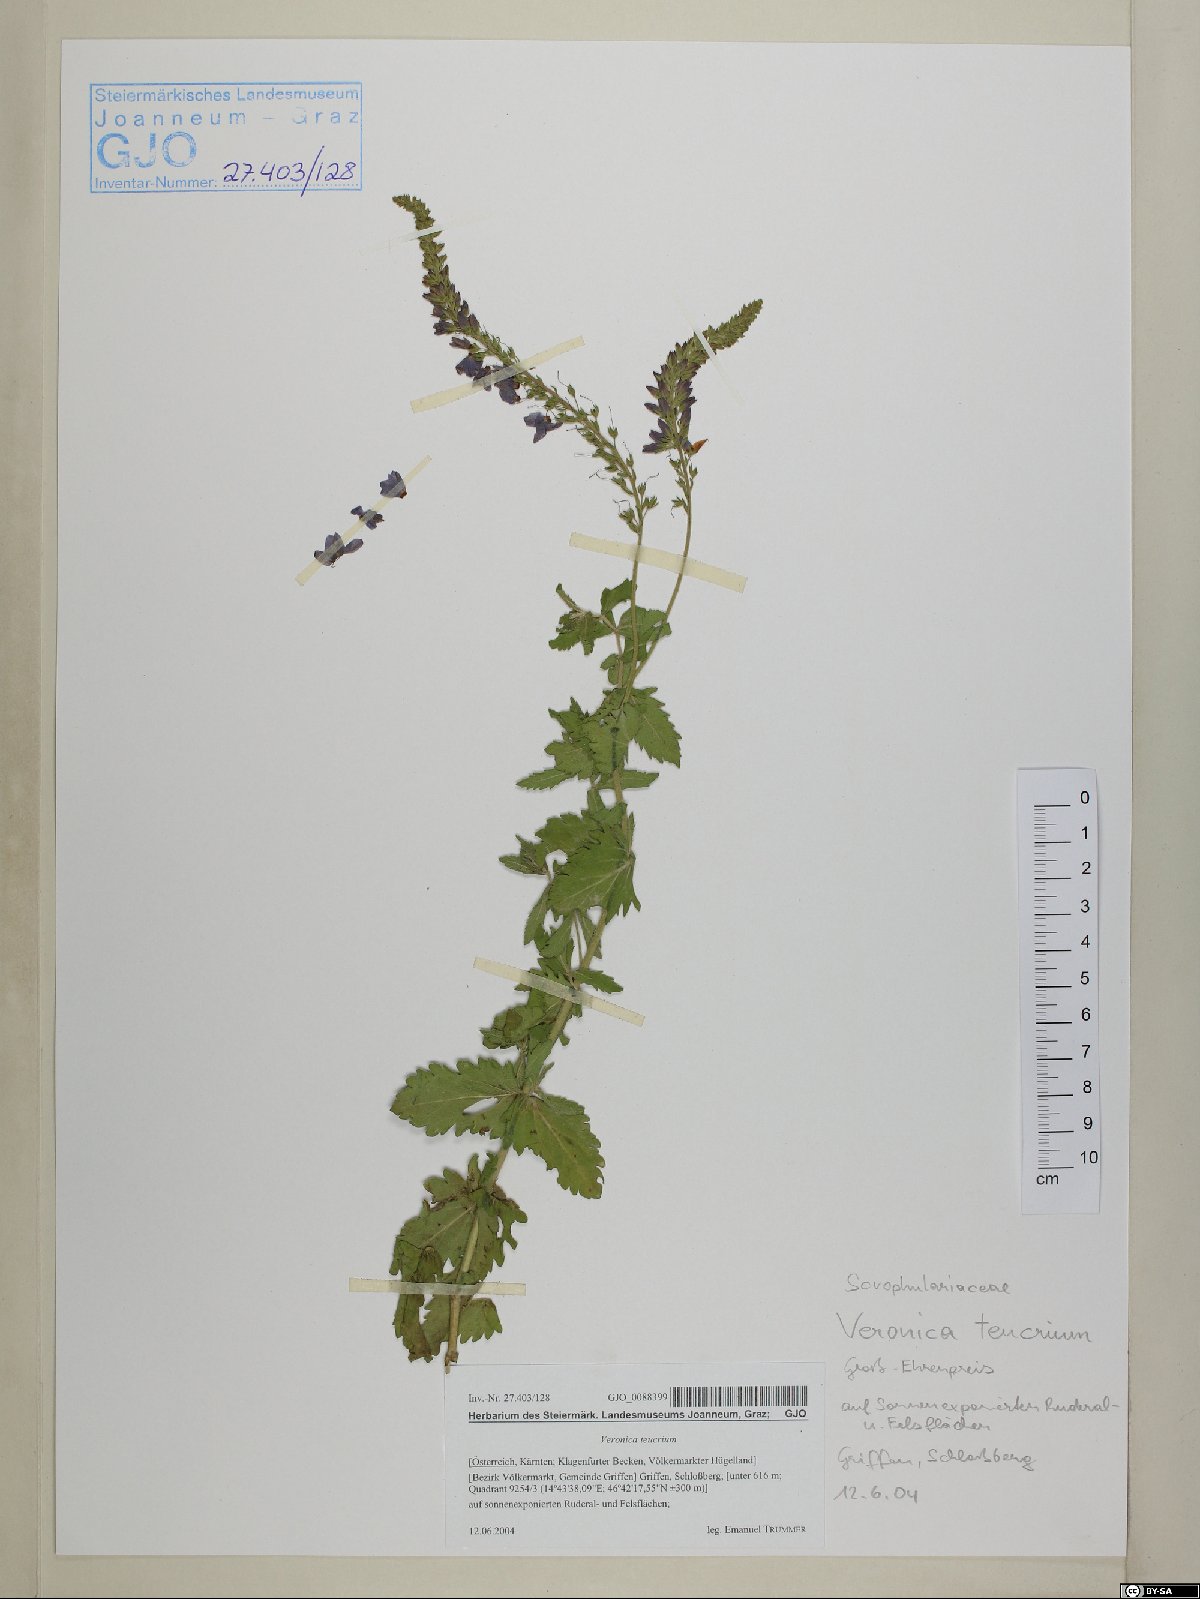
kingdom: Plantae
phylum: Tracheophyta
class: Magnoliopsida
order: Lamiales
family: Plantaginaceae
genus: Veronica
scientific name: Veronica teucrium
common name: Large speedwell
